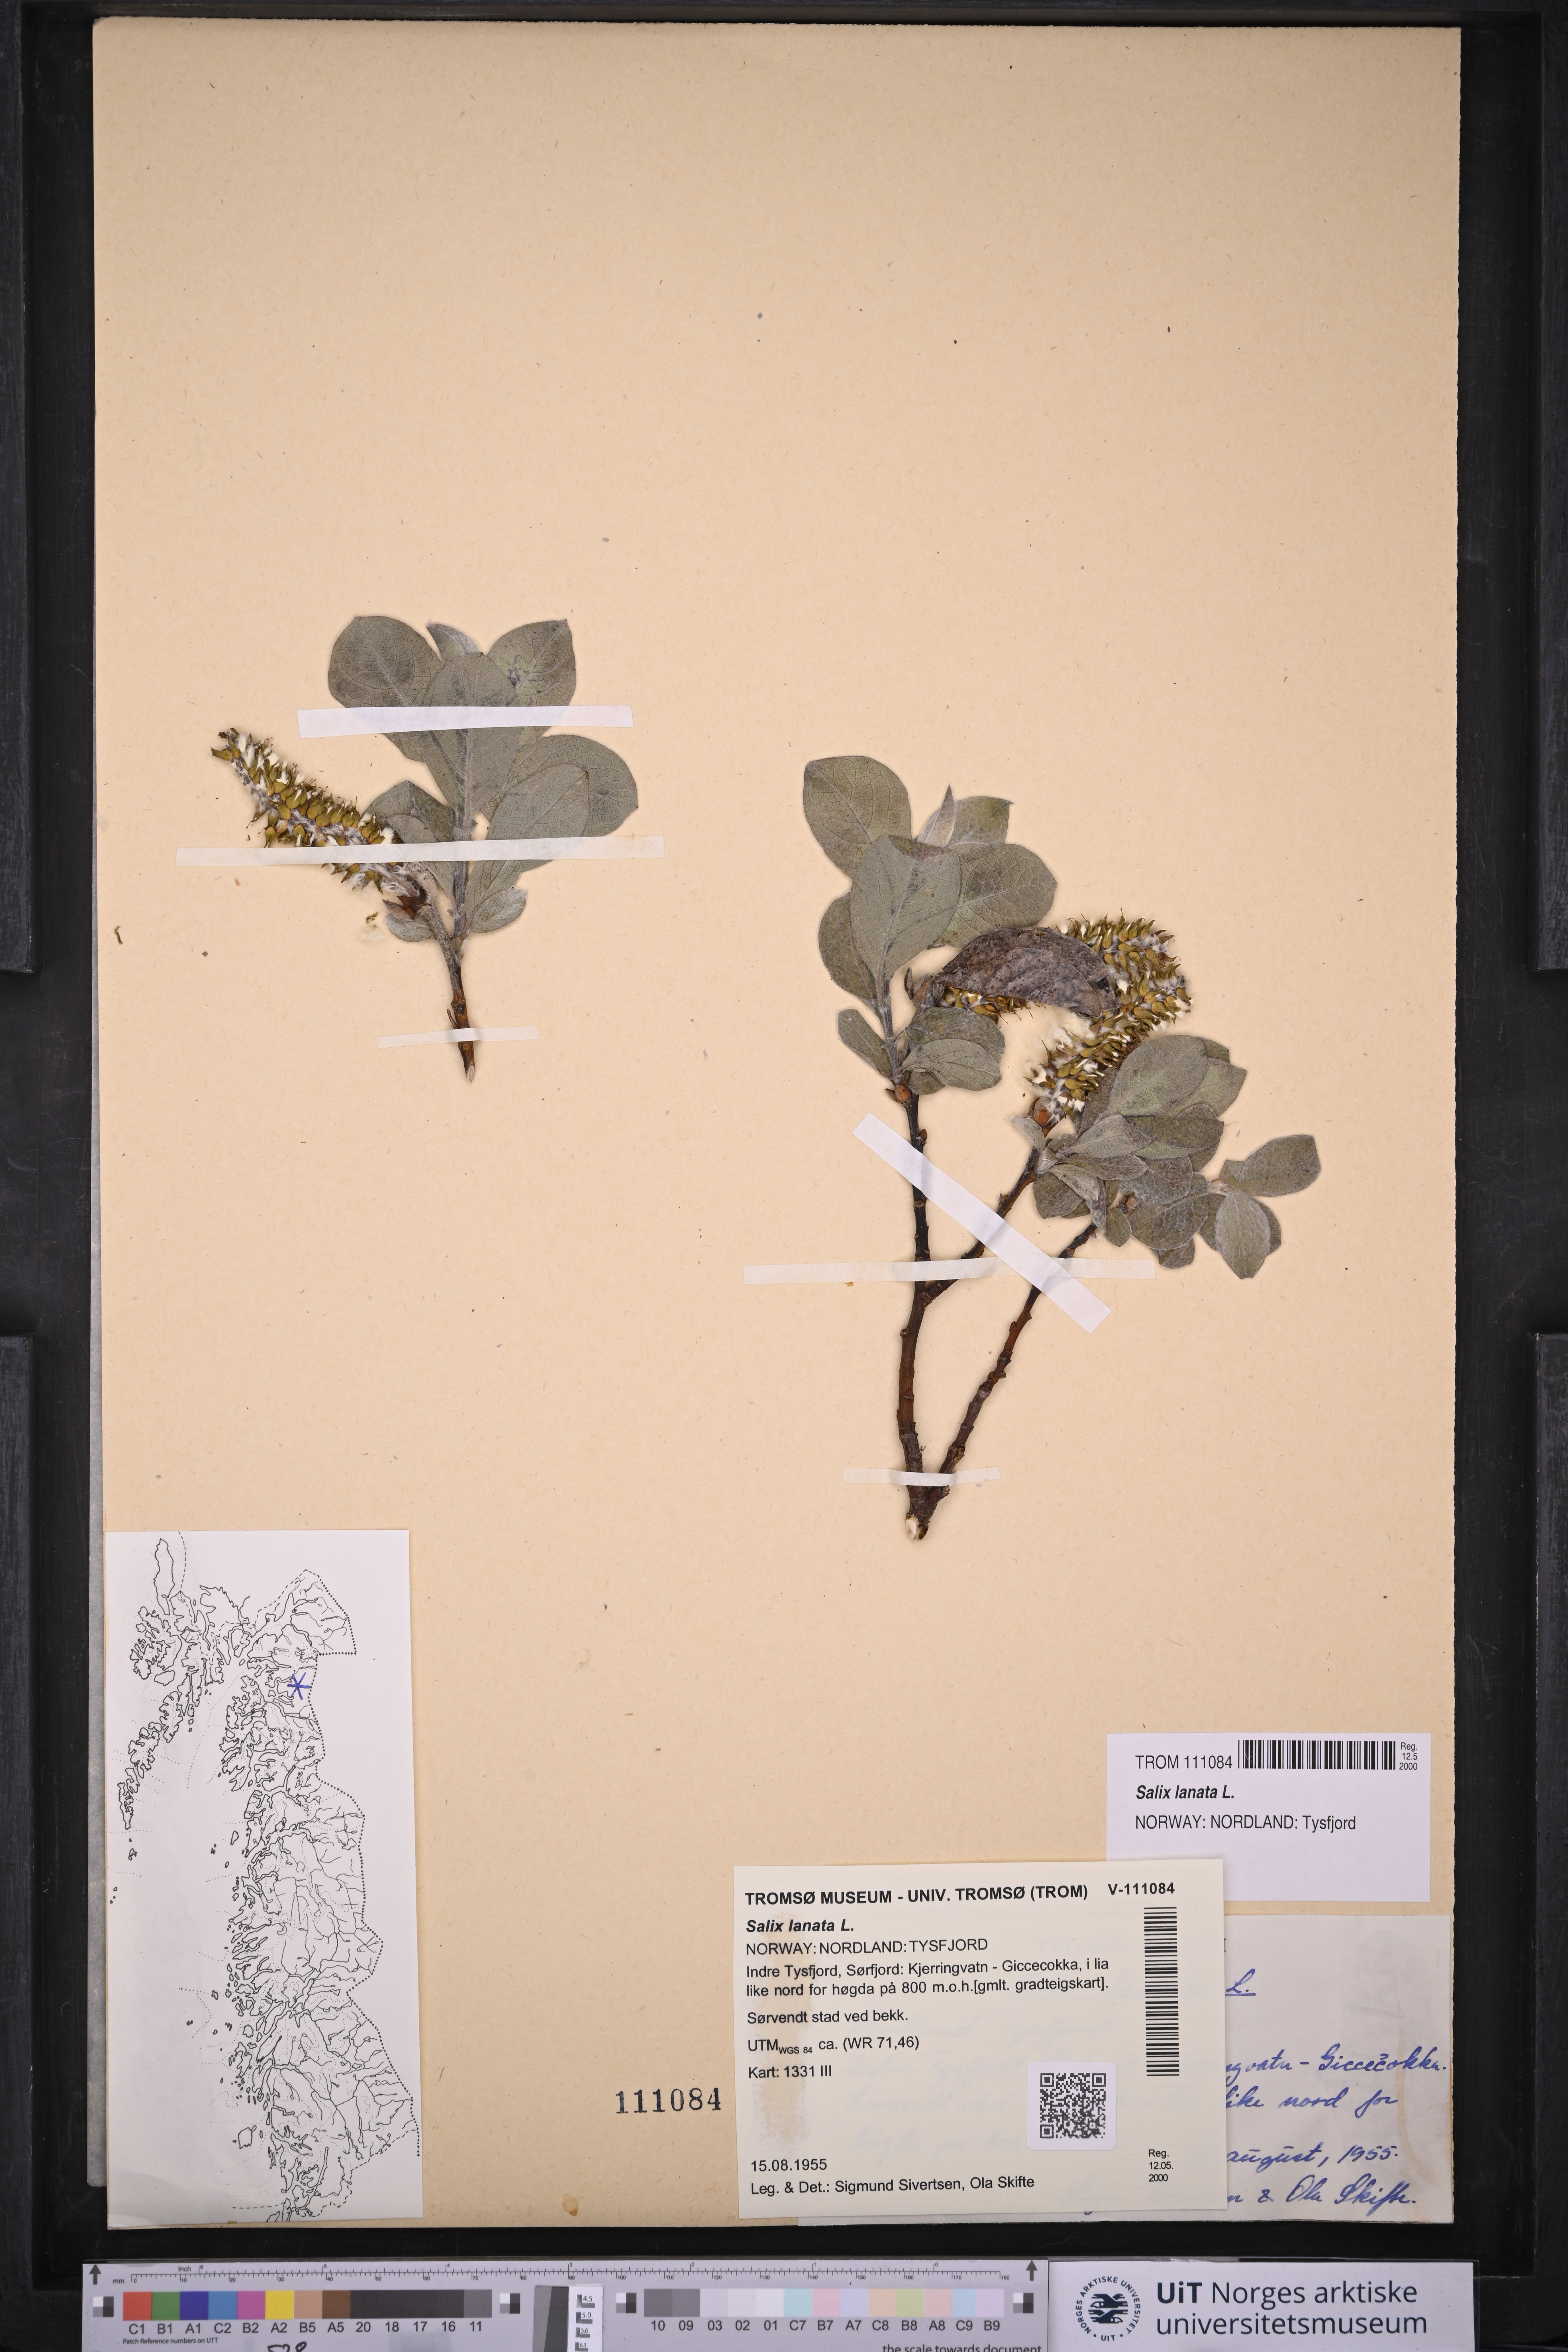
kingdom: Plantae
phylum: Tracheophyta
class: Magnoliopsida
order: Malpighiales
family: Salicaceae
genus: Salix
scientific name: Salix lanata
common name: Woolly willow
